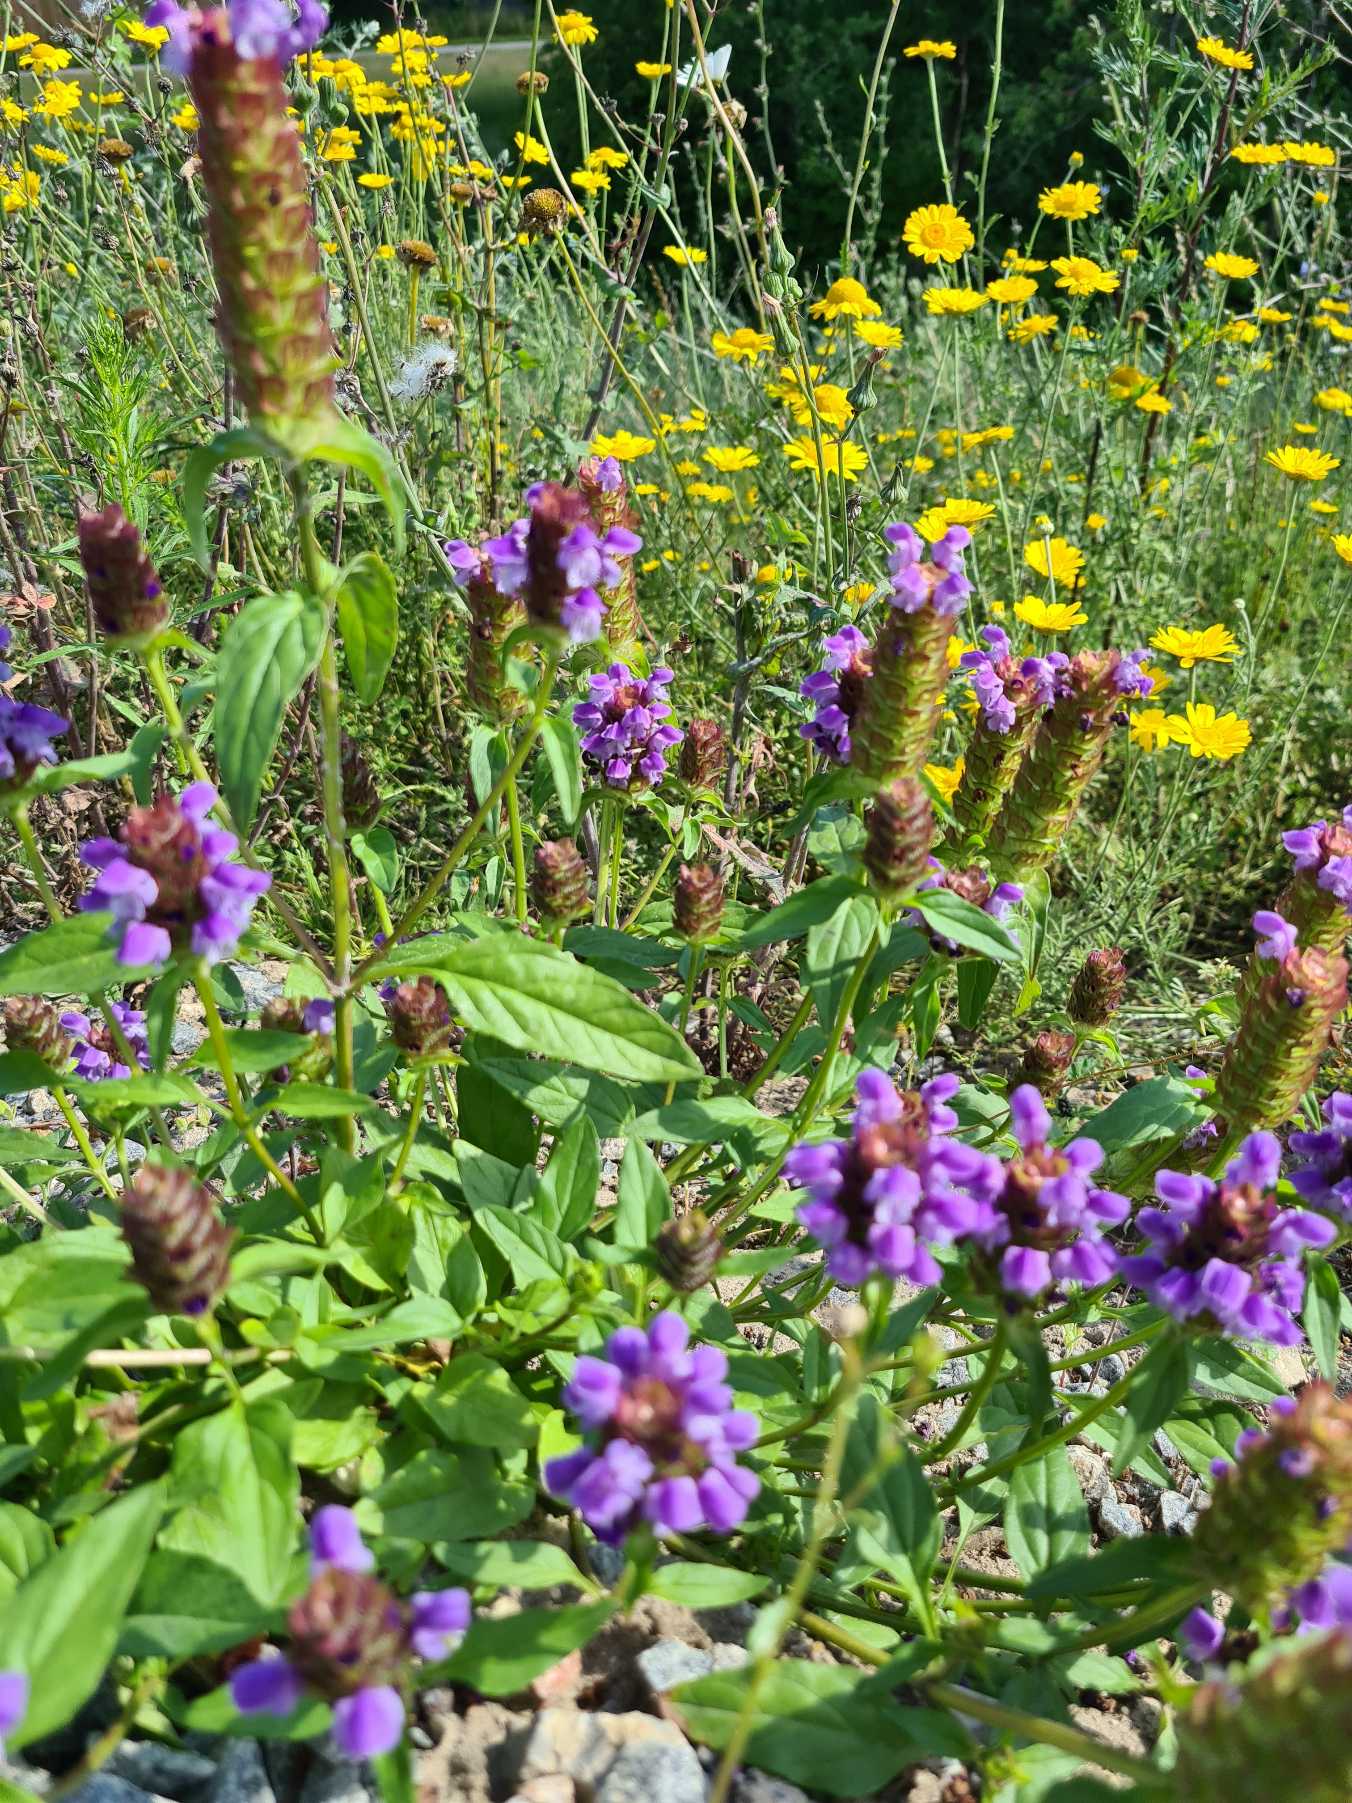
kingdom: Plantae
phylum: Tracheophyta
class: Magnoliopsida
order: Lamiales
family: Lamiaceae
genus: Prunella
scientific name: Prunella vulgaris
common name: Almindelig brunelle
